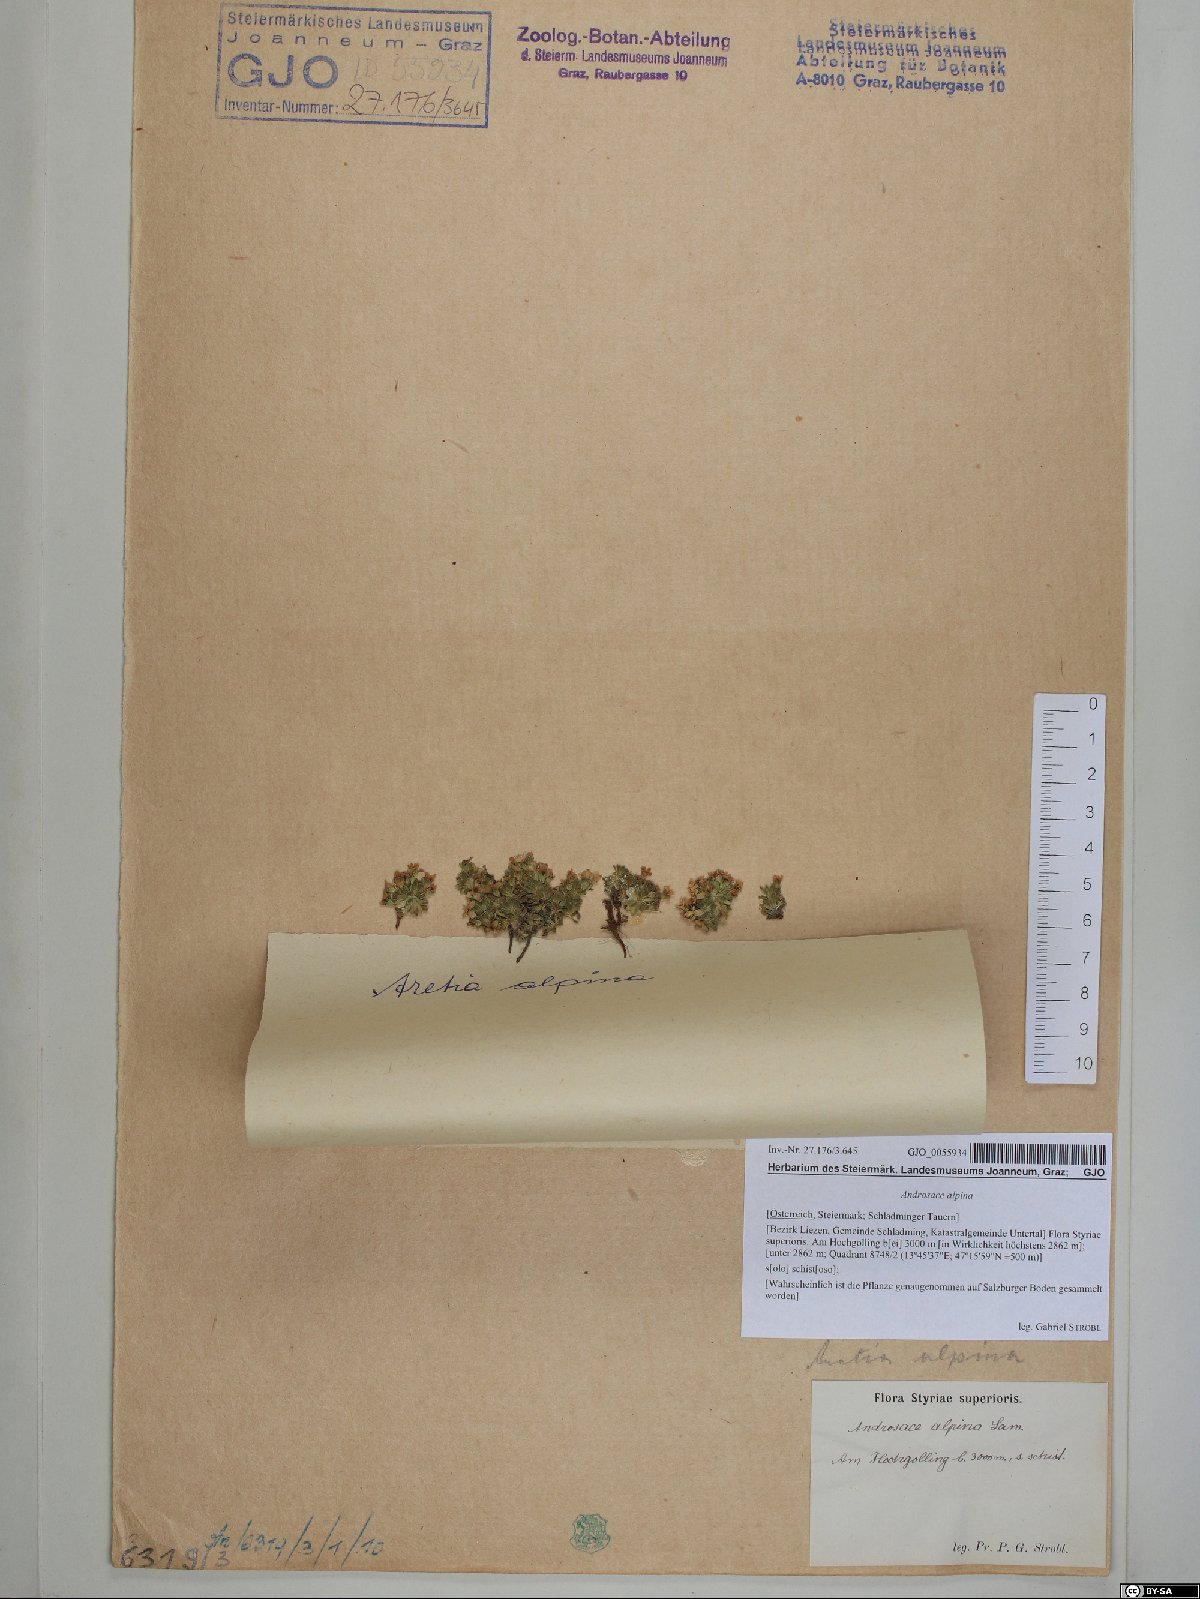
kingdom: Plantae
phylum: Tracheophyta
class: Magnoliopsida
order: Ericales
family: Primulaceae
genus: Androsace
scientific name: Androsace alpina
